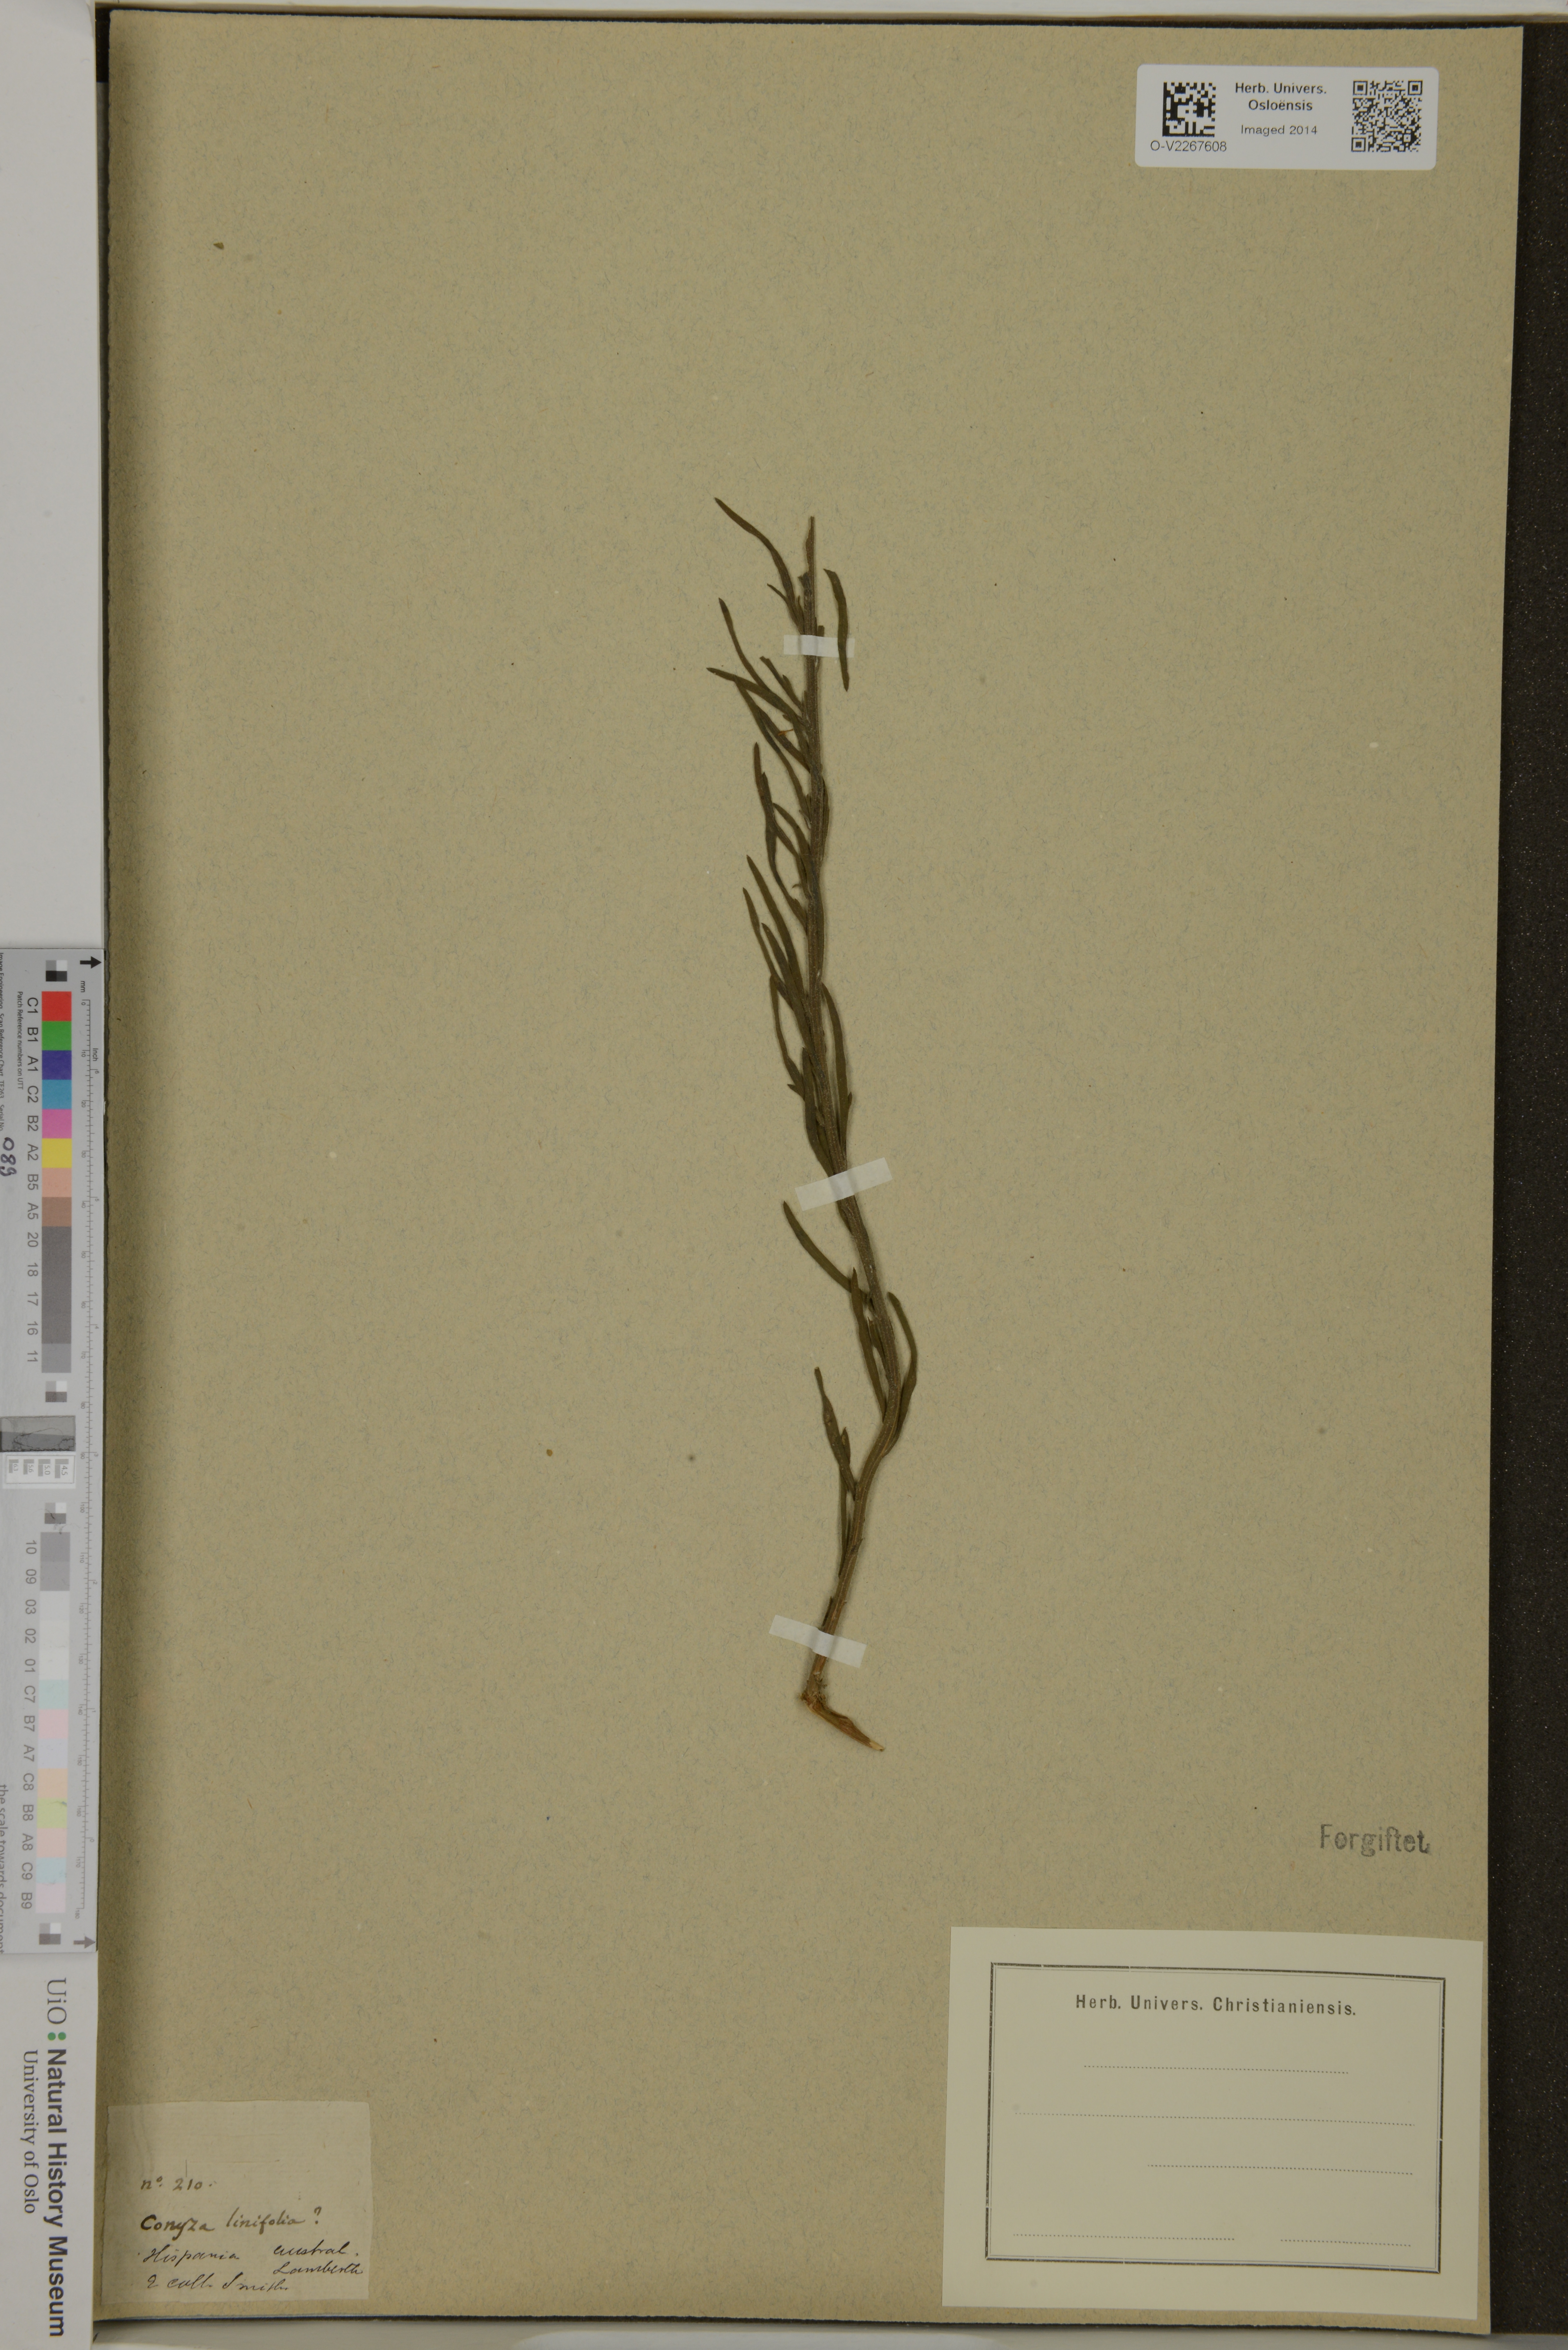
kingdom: Plantae
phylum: Tracheophyta
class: Magnoliopsida
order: Asterales
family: Asteraceae
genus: Conyza
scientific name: Conyza linifolia
